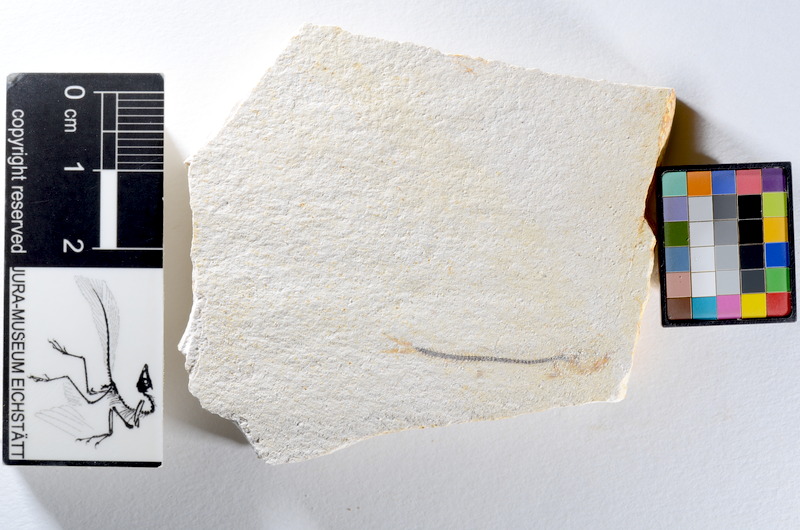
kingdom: Animalia
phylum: Chordata
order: Salmoniformes
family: Orthogonikleithridae
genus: Orthogonikleithrus
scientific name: Orthogonikleithrus hoelli
